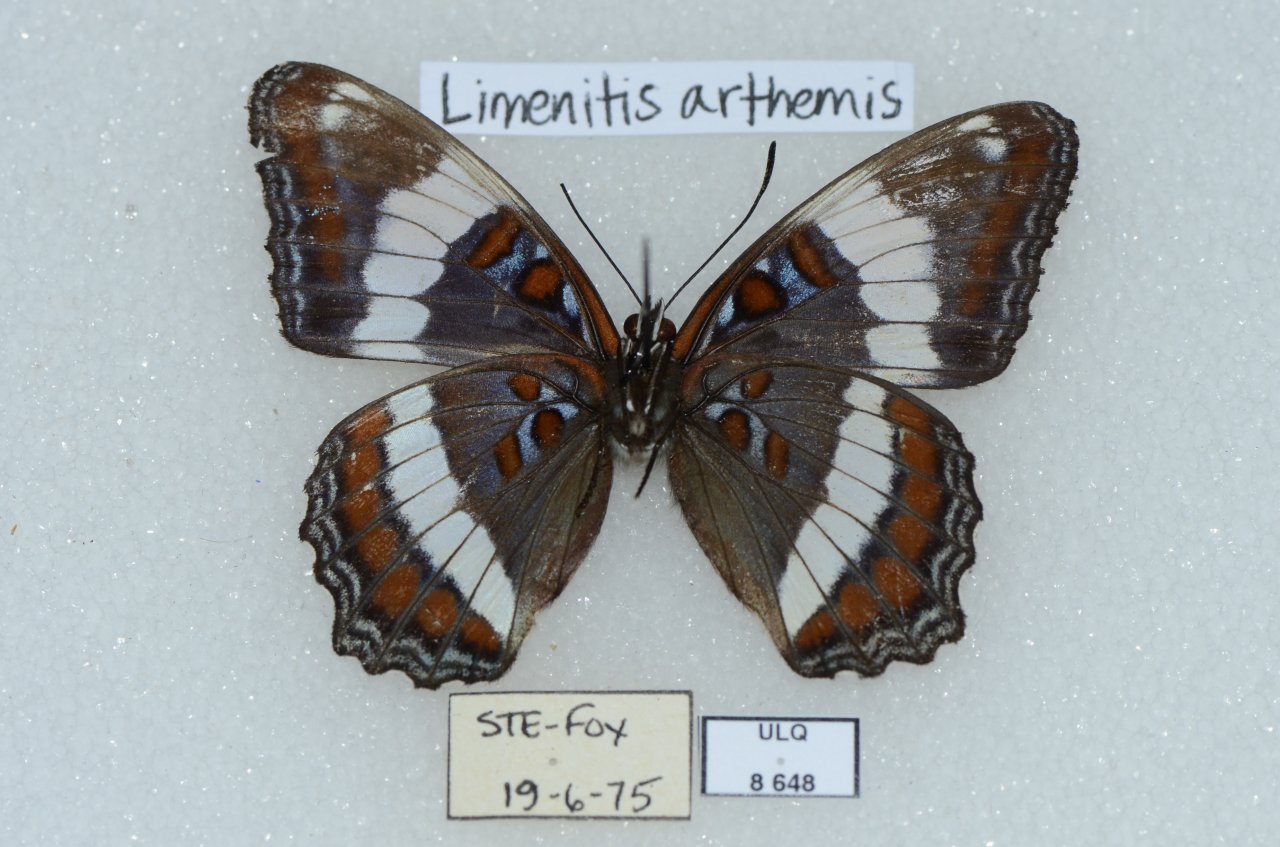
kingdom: Animalia
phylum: Arthropoda
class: Insecta
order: Lepidoptera
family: Nymphalidae
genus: Limenitis
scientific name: Limenitis archippus
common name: Viceroy
